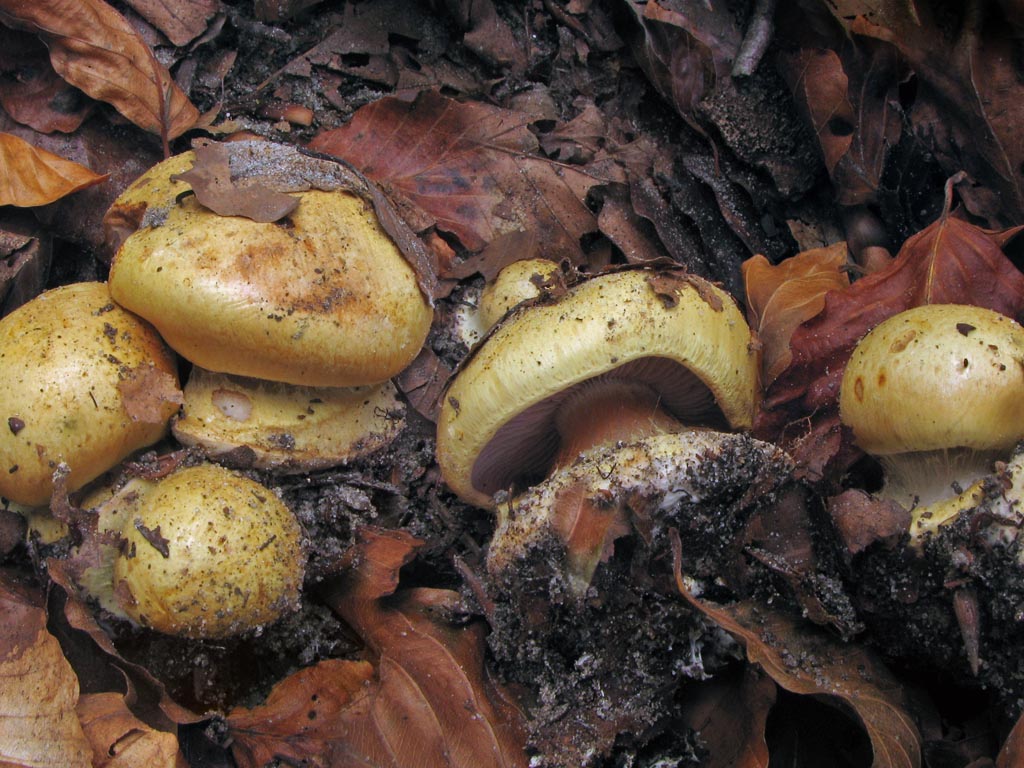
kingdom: Fungi
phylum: Basidiomycota
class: Agaricomycetes
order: Agaricales
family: Cortinariaceae
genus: Calonarius
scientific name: Calonarius callochrous
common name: lillabladet slørhat
